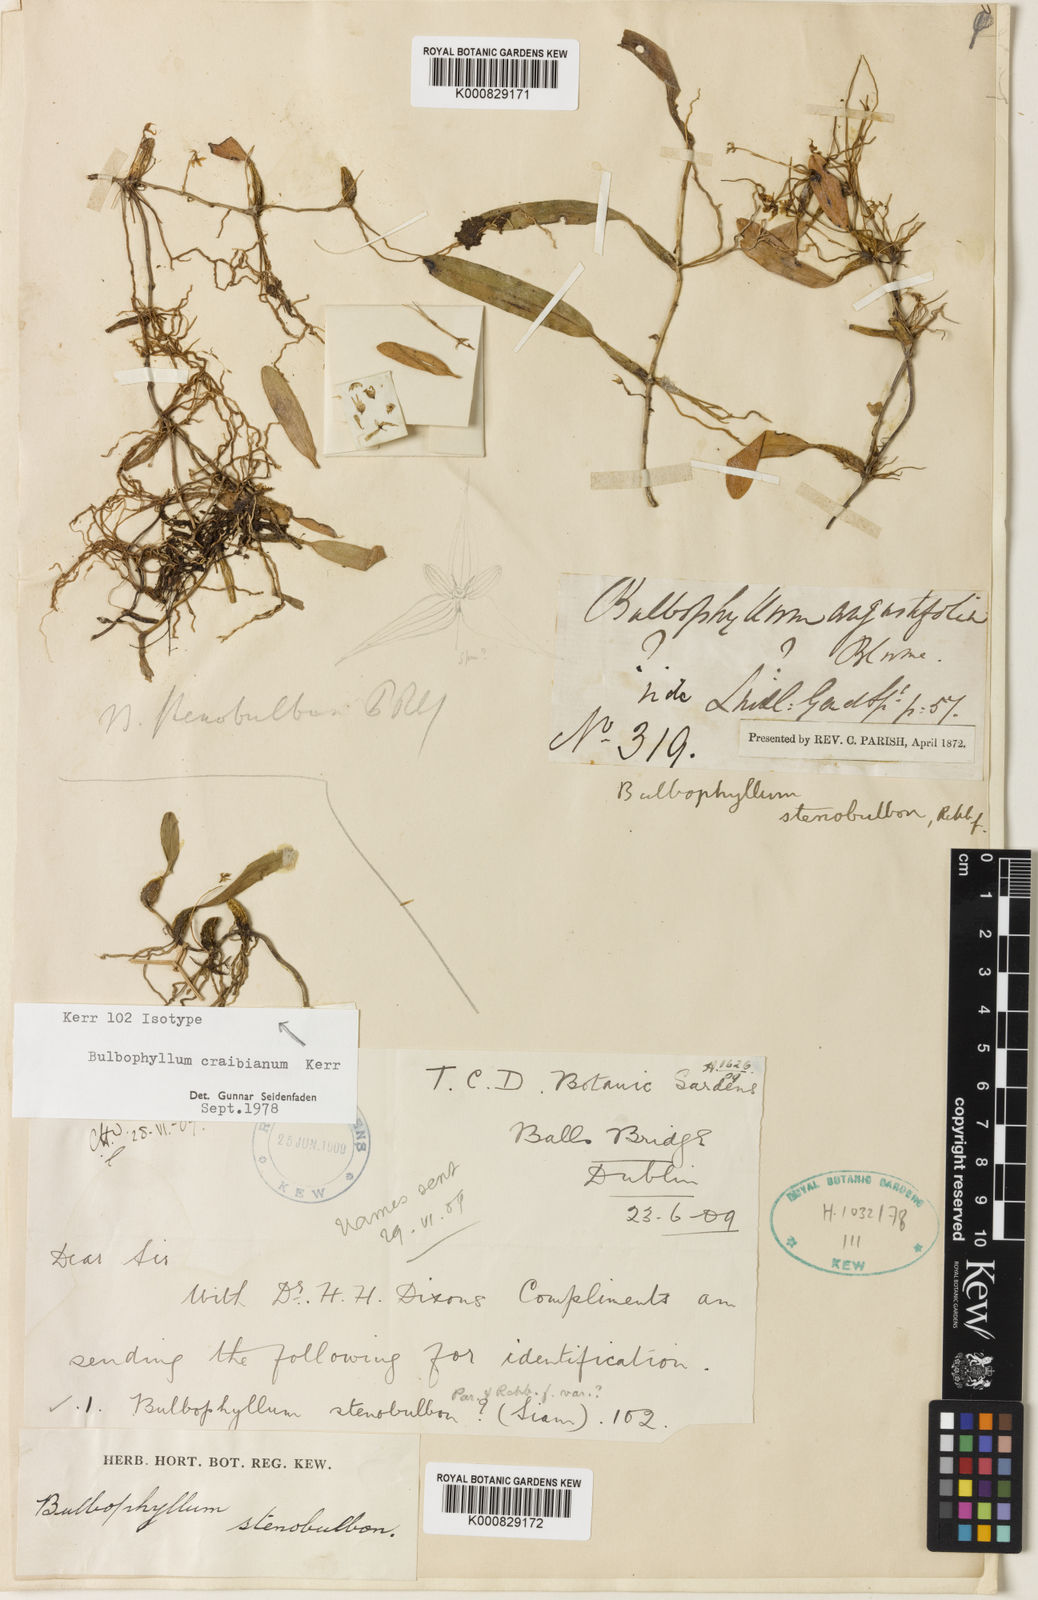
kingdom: Plantae
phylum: Tracheophyta
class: Liliopsida
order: Asparagales
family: Orchidaceae
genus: Bulbophyllum
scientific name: Bulbophyllum stenobulbon
